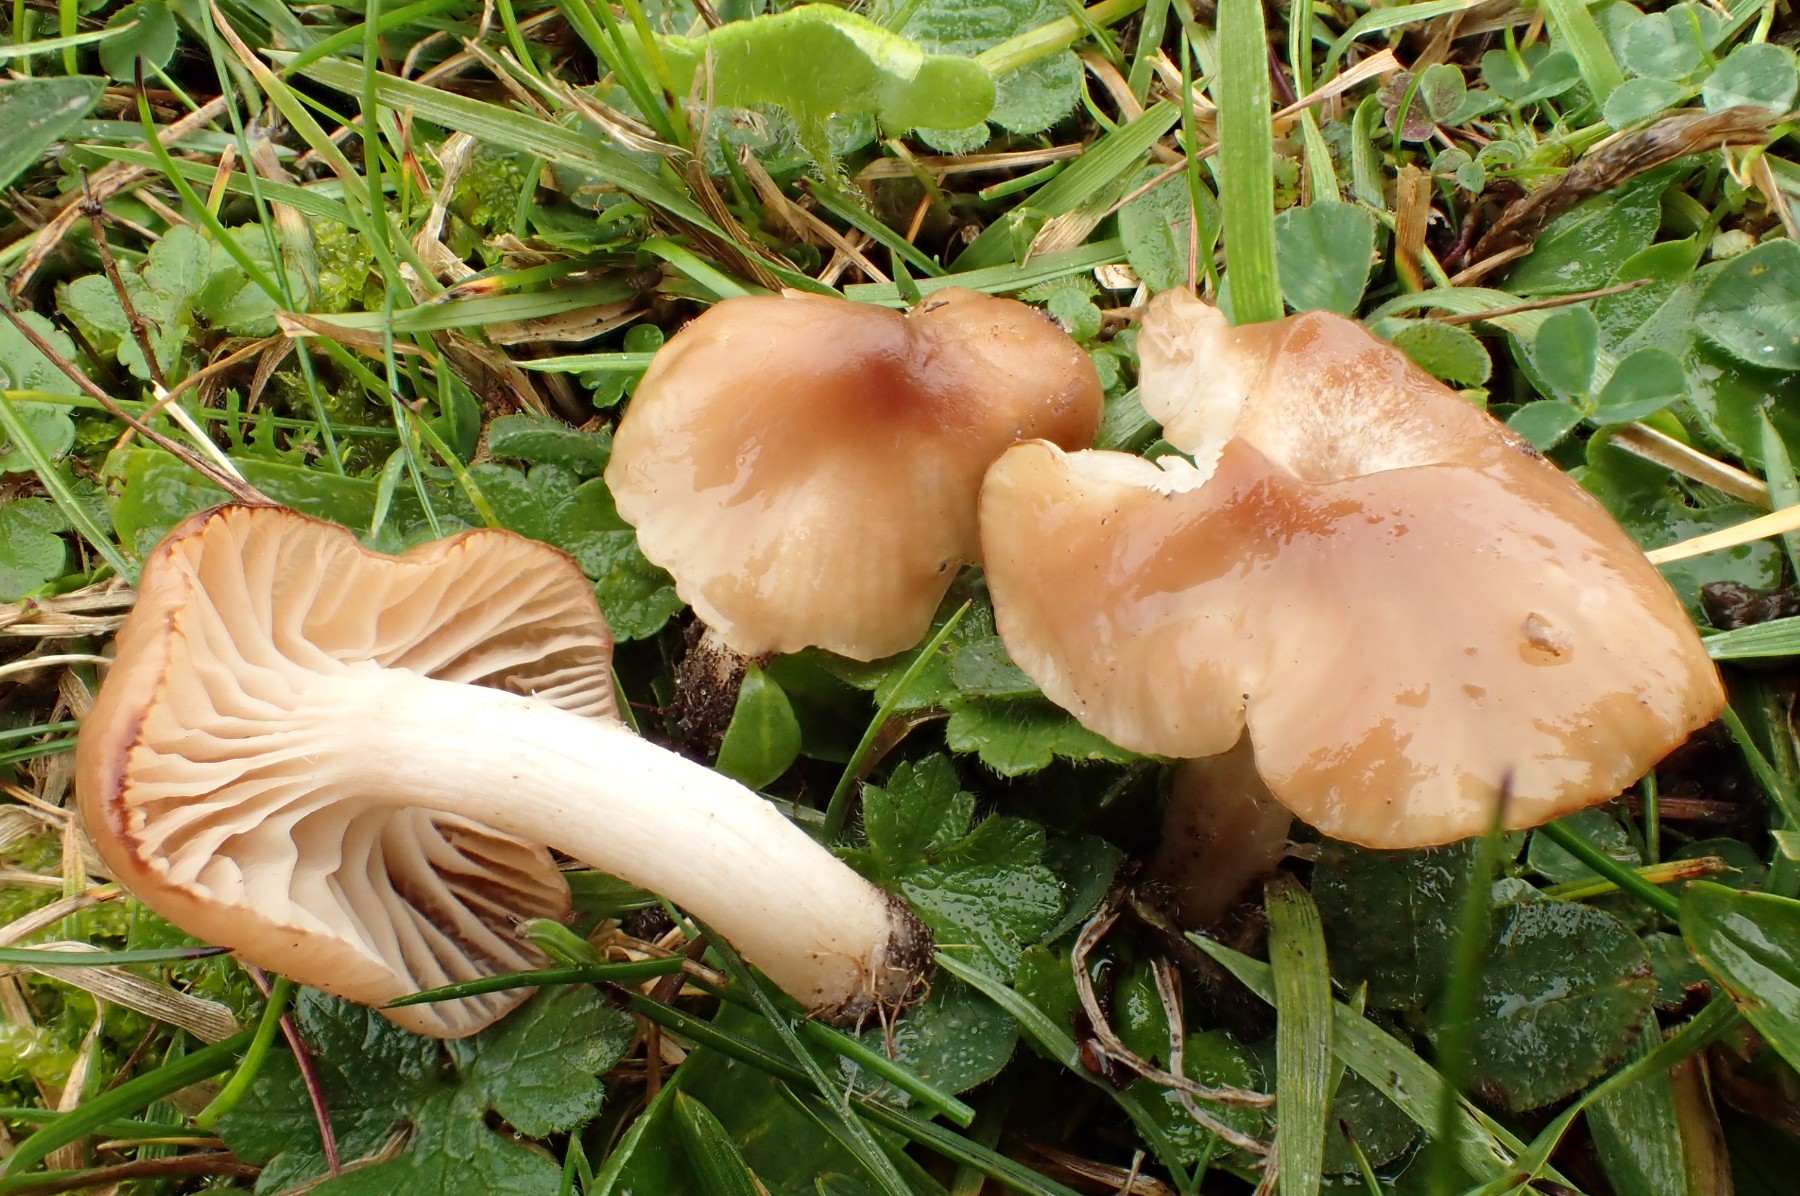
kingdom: Fungi
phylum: Basidiomycota
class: Agaricomycetes
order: Agaricales
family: Hygrophoraceae
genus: Cuphophyllus
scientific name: Cuphophyllus colemannianus
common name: rødbrun vokshat
